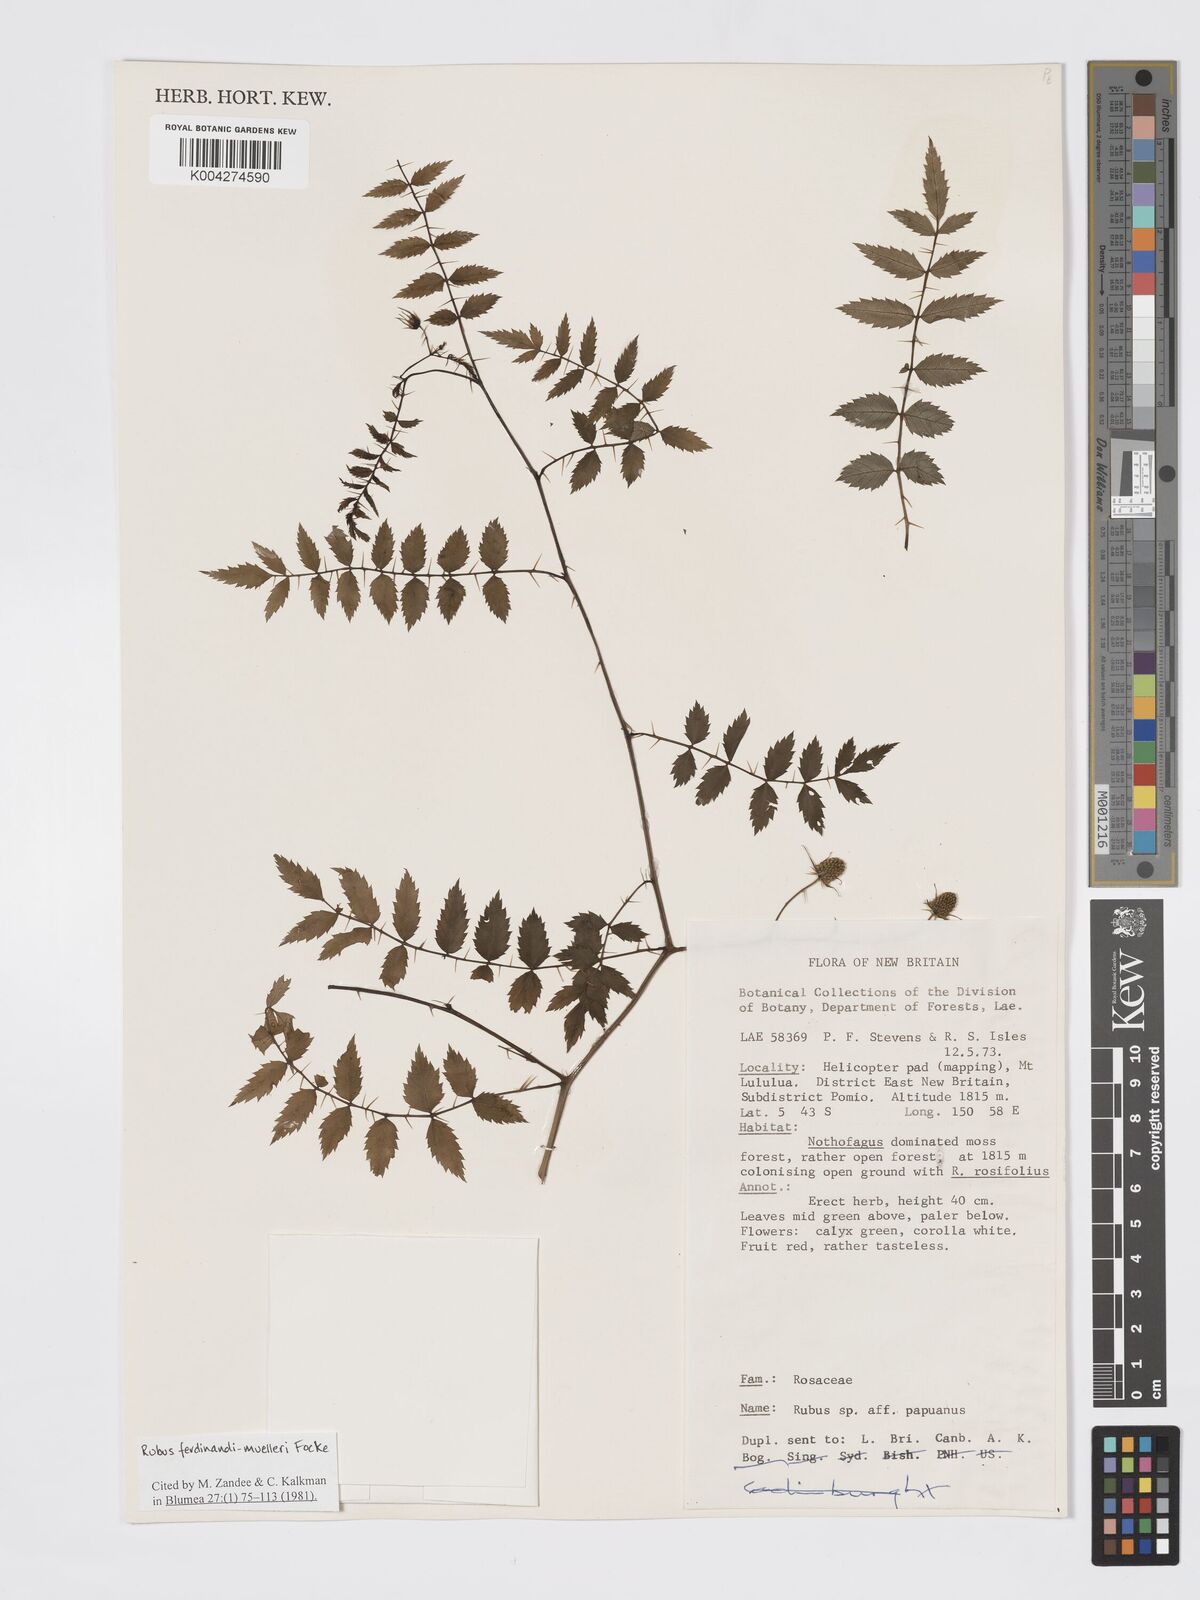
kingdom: Plantae
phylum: Tracheophyta
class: Magnoliopsida
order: Rosales
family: Rosaceae
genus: Rubus
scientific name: Rubus ferdinandimuelleri
